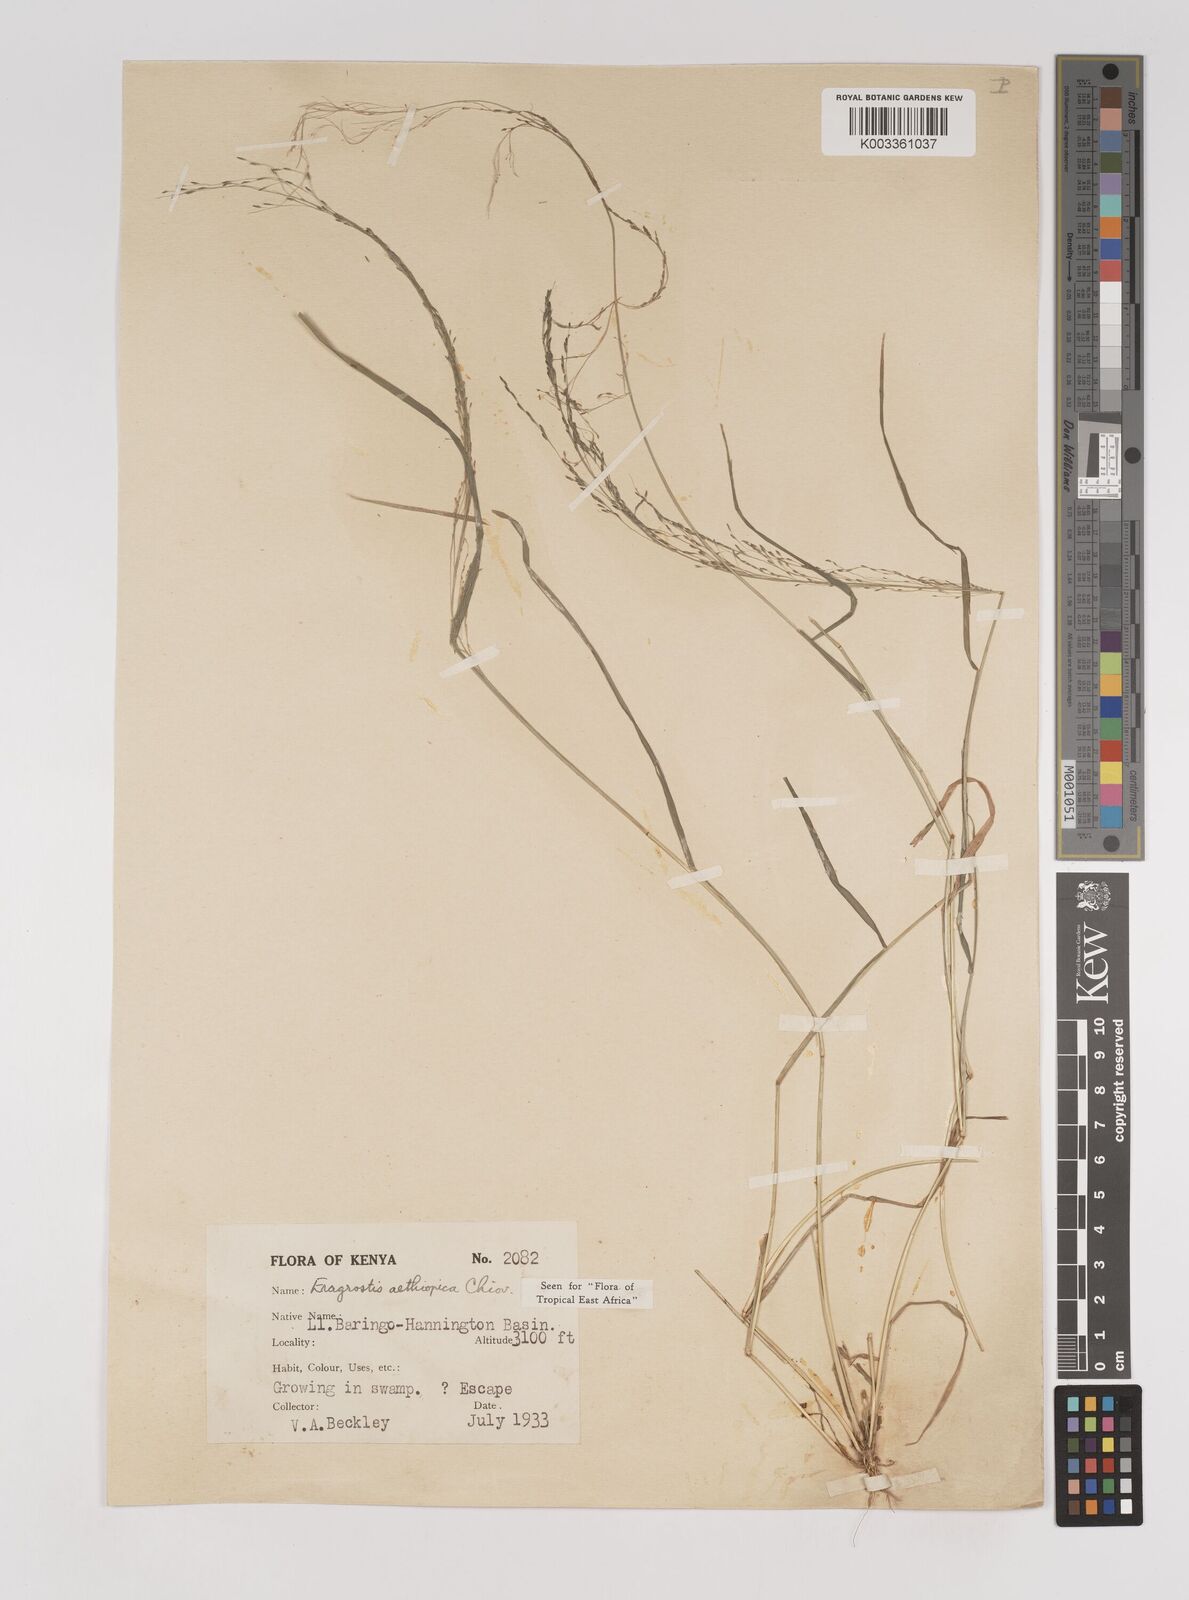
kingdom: Plantae
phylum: Tracheophyta
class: Liliopsida
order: Poales
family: Poaceae
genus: Eragrostis
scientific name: Eragrostis aethiopica
